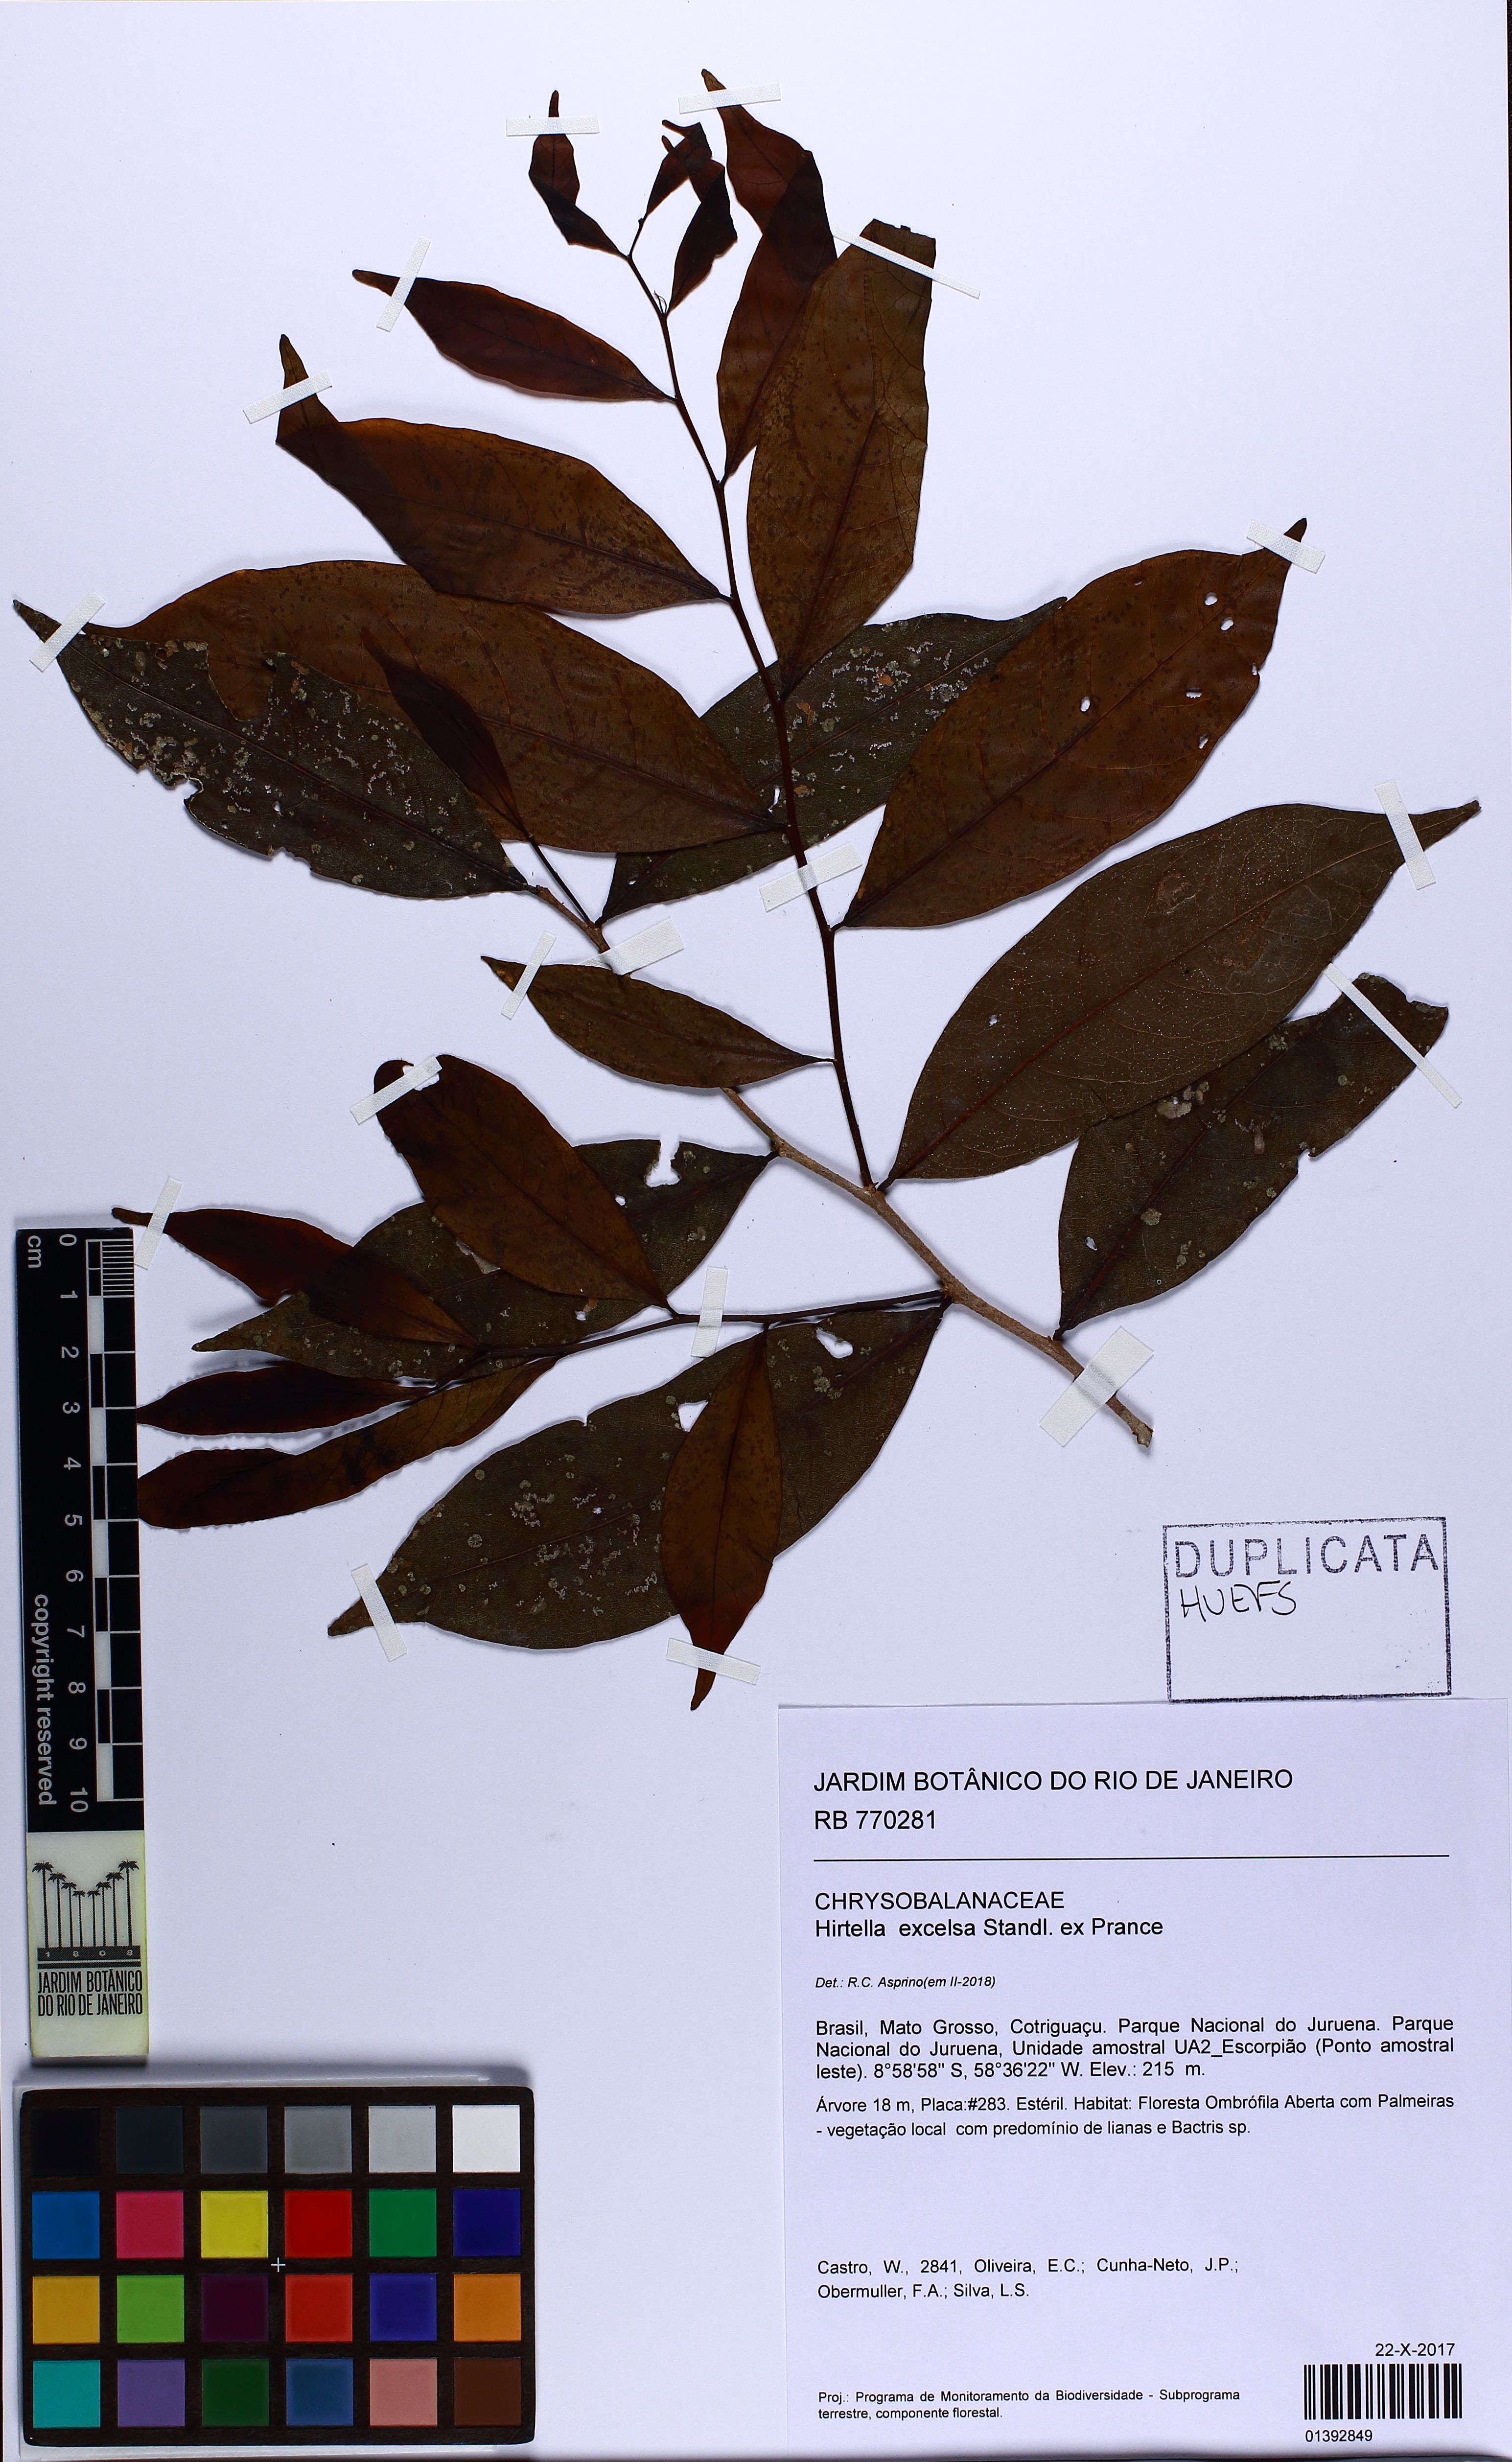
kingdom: Plantae
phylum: Tracheophyta
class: Magnoliopsida
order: Malpighiales
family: Chrysobalanaceae
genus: Hirtella
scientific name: Hirtella excelsa
